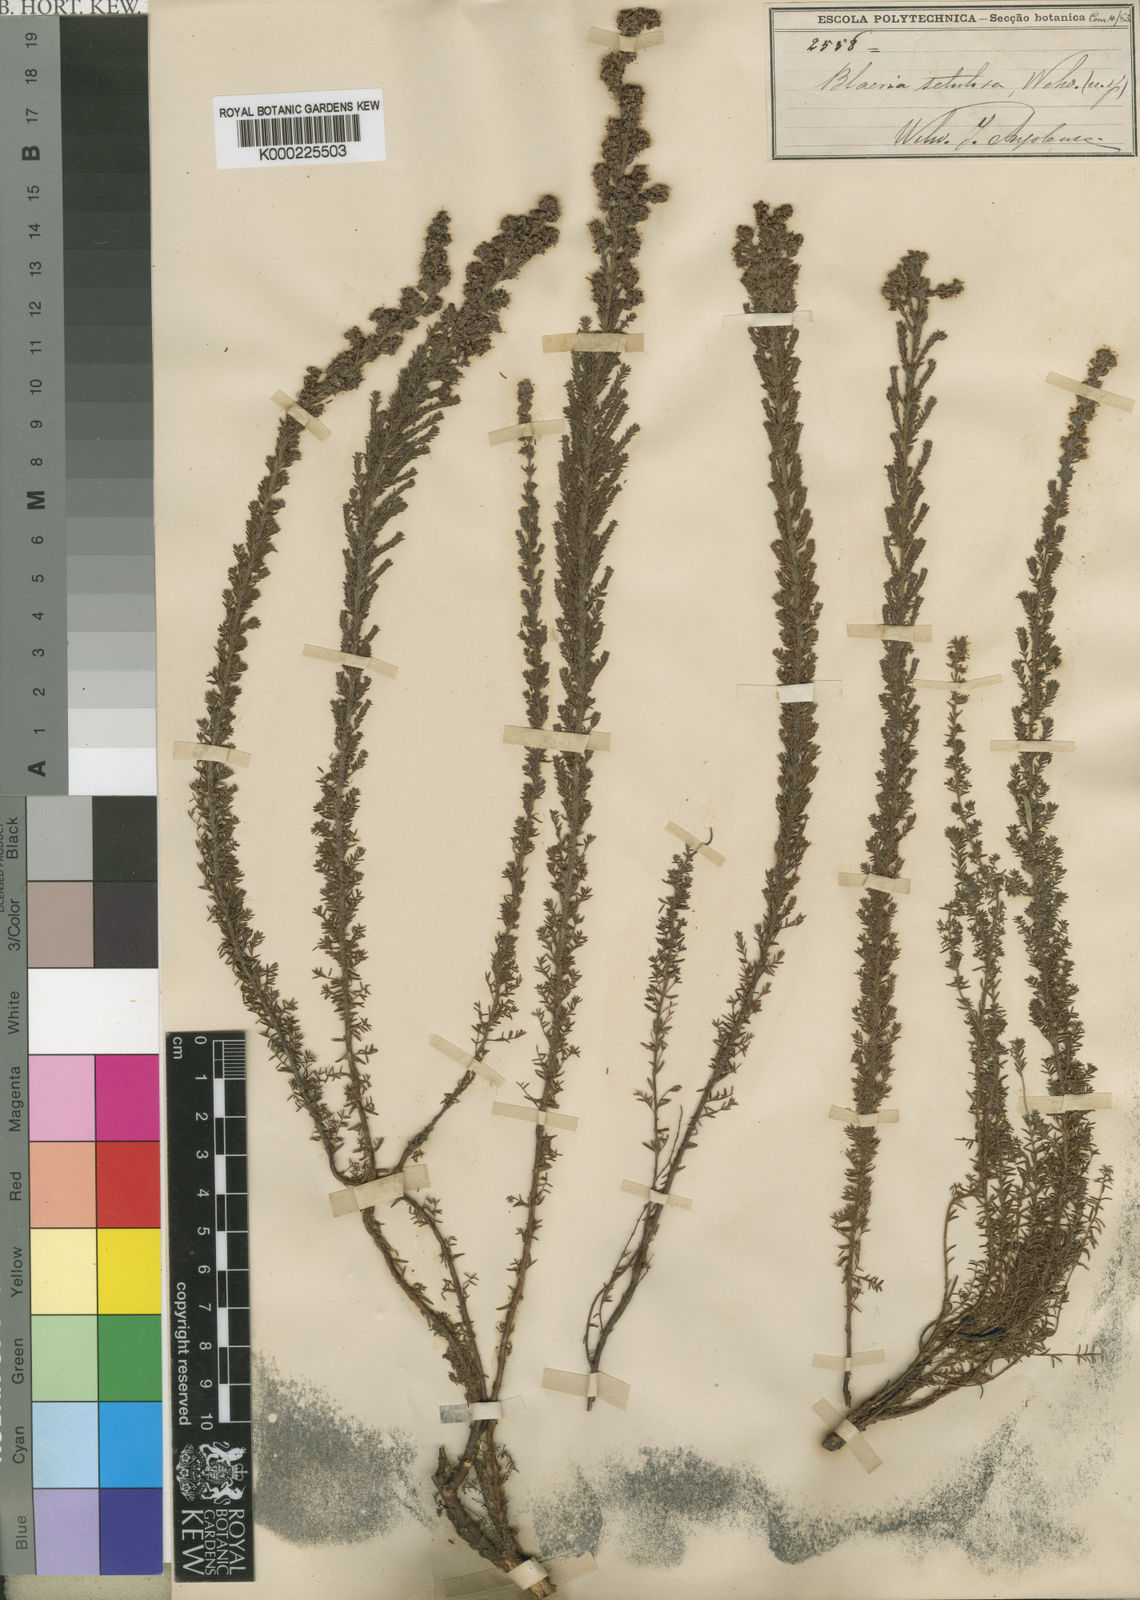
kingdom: Plantae
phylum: Tracheophyta
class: Magnoliopsida
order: Ericales
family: Ericaceae
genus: Erica
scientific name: Erica Blaeria setulosa
